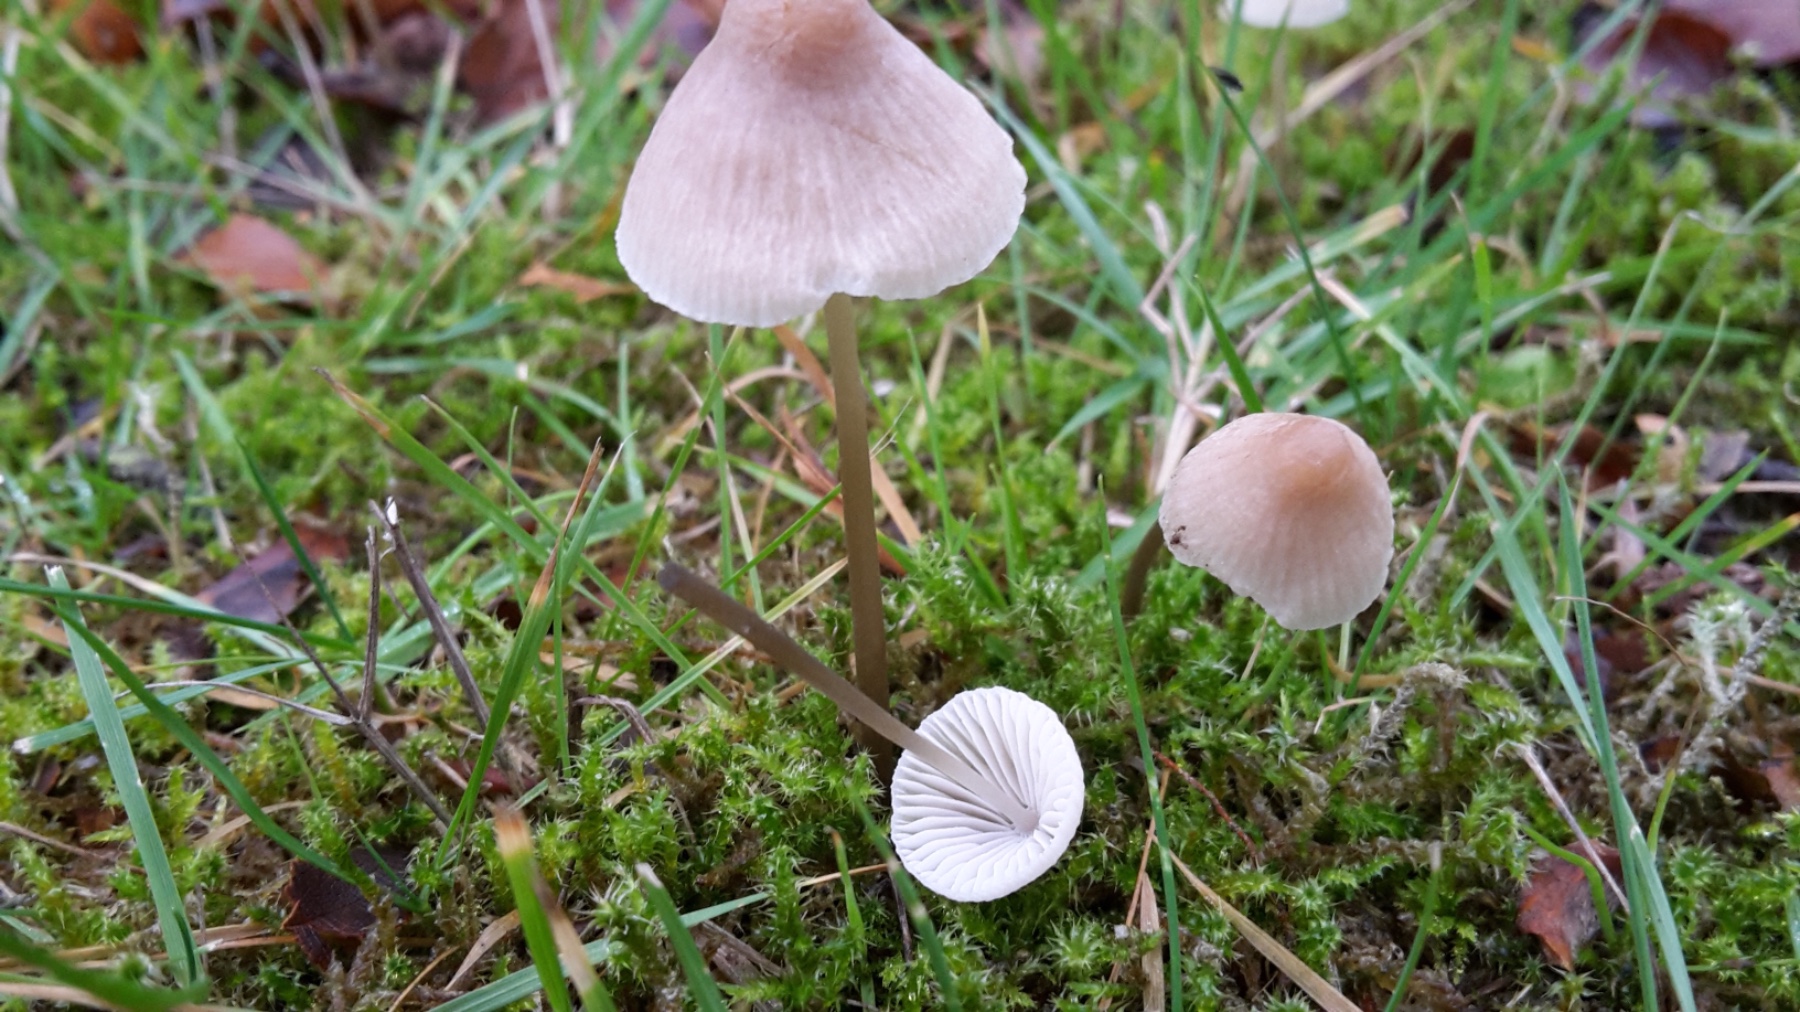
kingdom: Fungi
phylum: Basidiomycota
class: Agaricomycetes
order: Agaricales
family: Mycenaceae
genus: Mycena
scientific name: Mycena metata
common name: rødlig huesvamp
